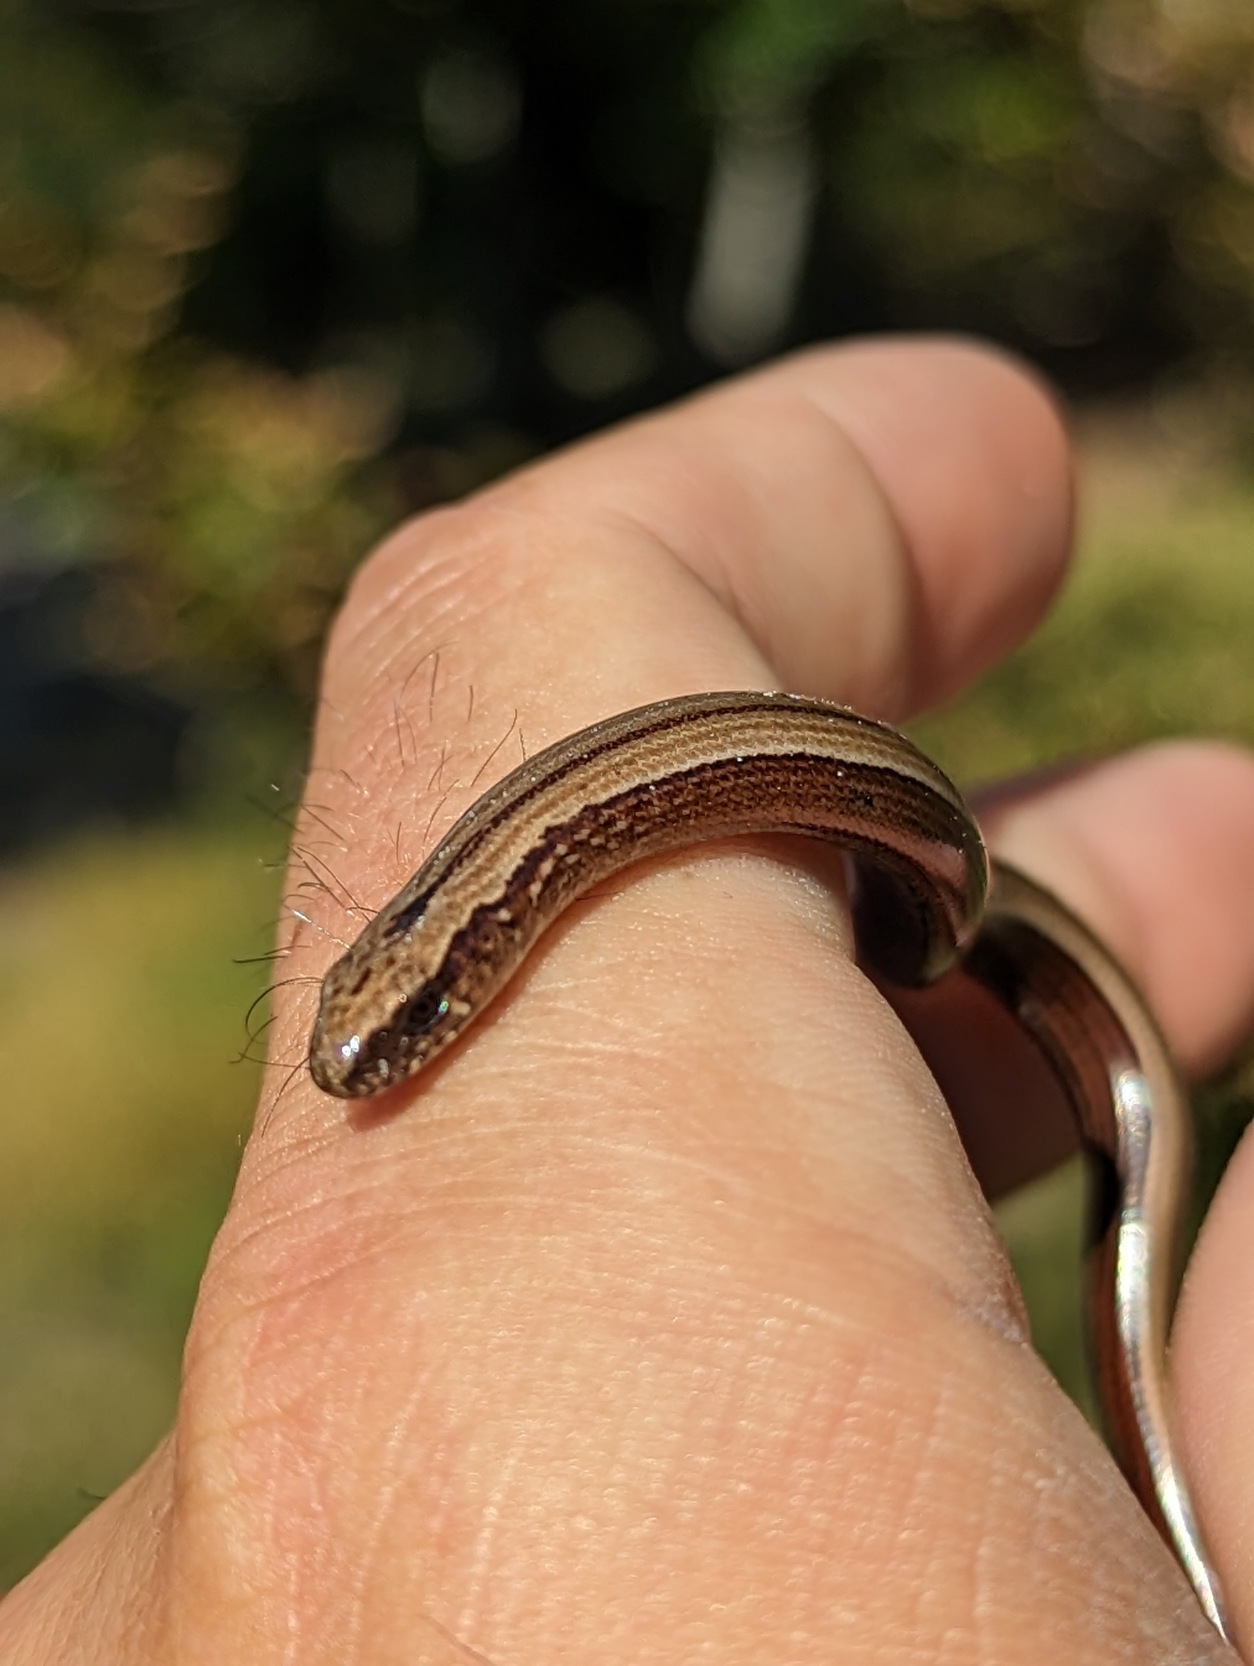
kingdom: Animalia
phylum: Chordata
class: Squamata
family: Anguidae
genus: Anguis
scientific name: Anguis fragilis
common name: Stålorm
